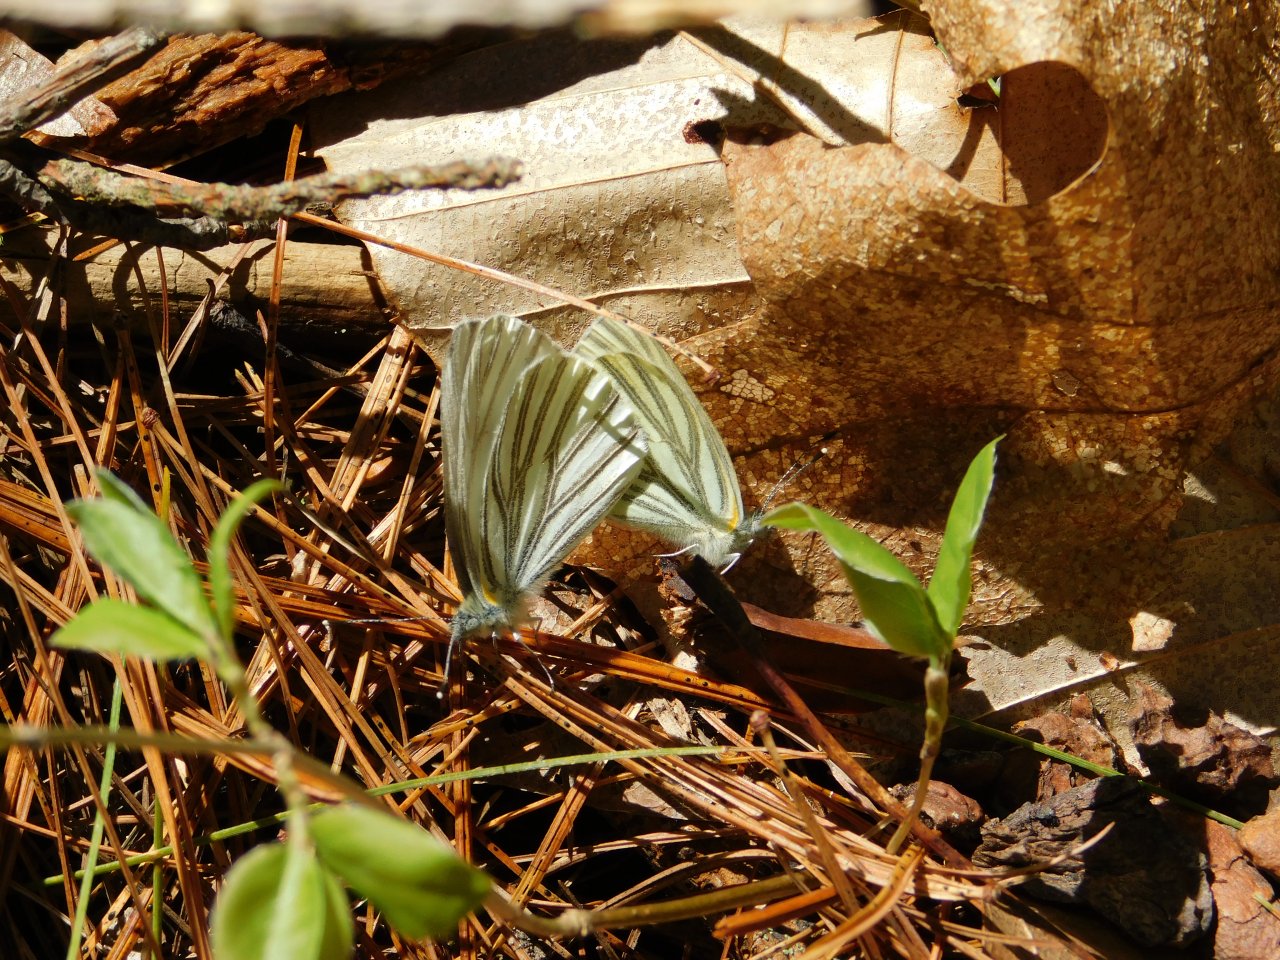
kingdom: Animalia
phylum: Arthropoda
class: Insecta
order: Lepidoptera
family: Pieridae
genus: Pieris
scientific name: Pieris oleracea
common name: Mustard White
